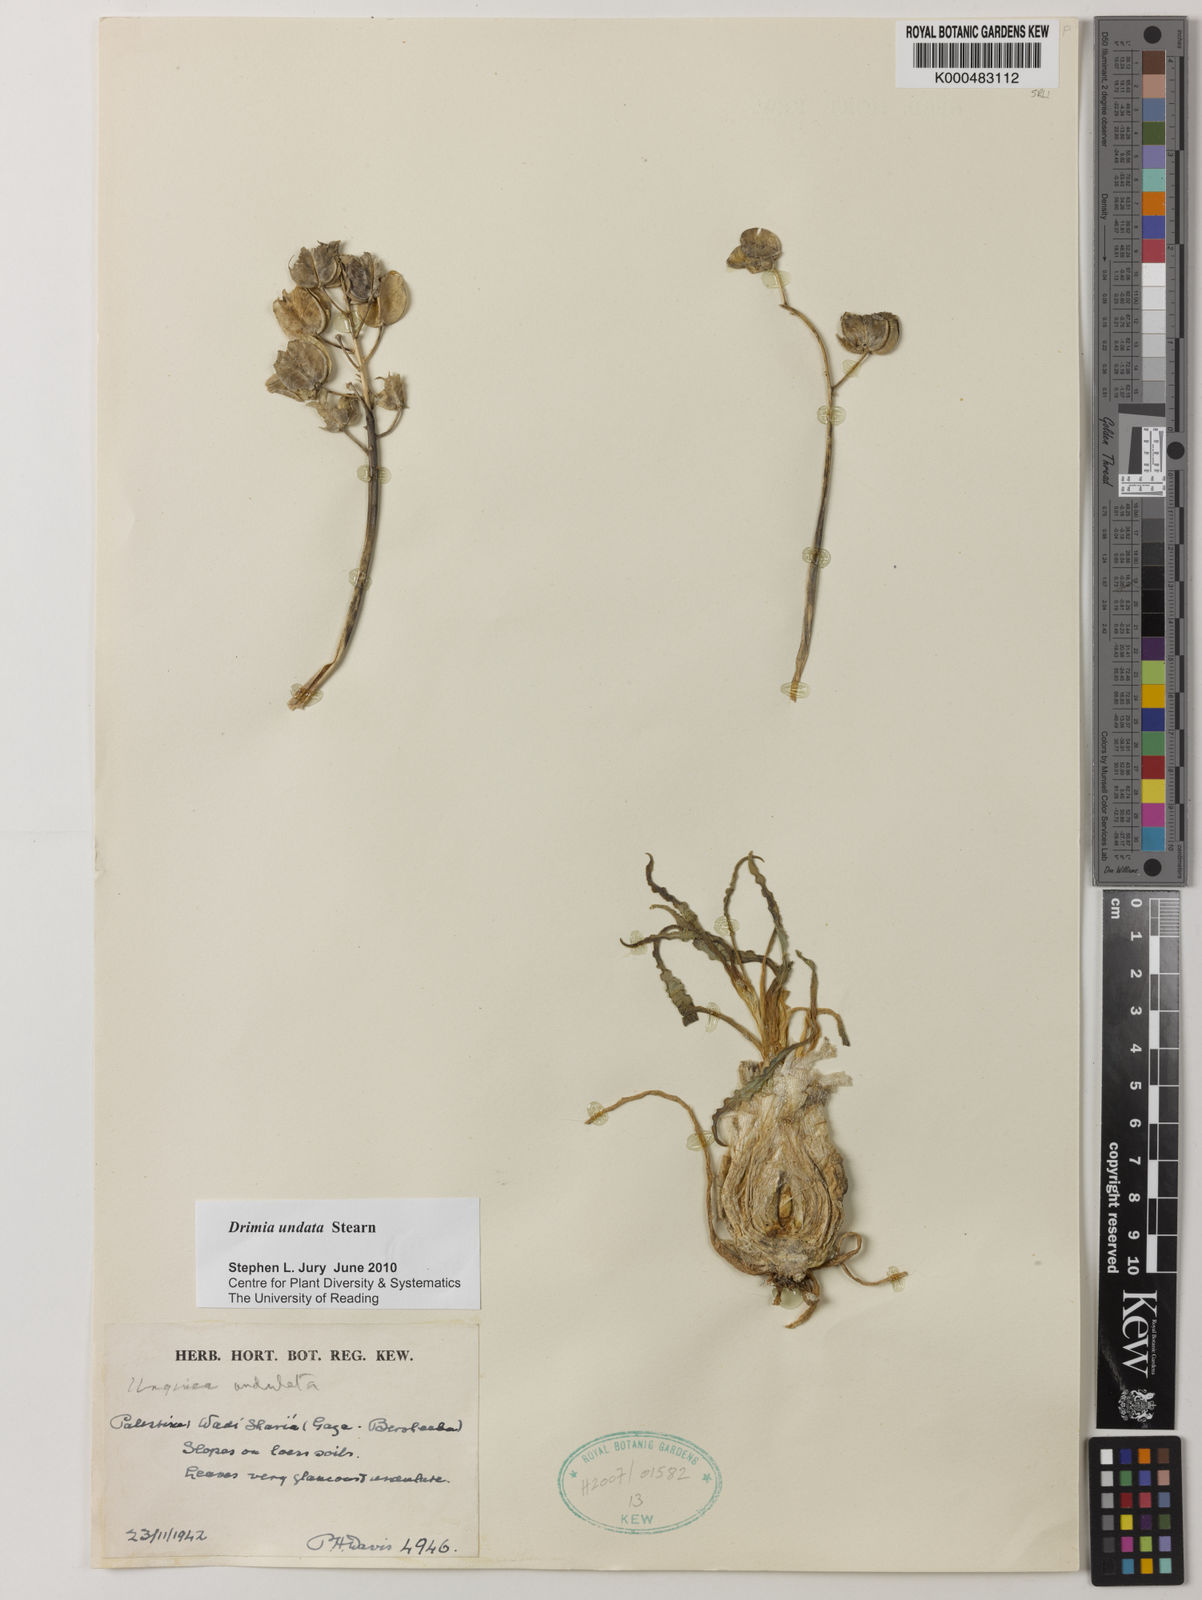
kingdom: Plantae
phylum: Tracheophyta
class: Liliopsida
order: Asparagales
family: Asparagaceae
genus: Drimia
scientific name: Drimia purpurascens
